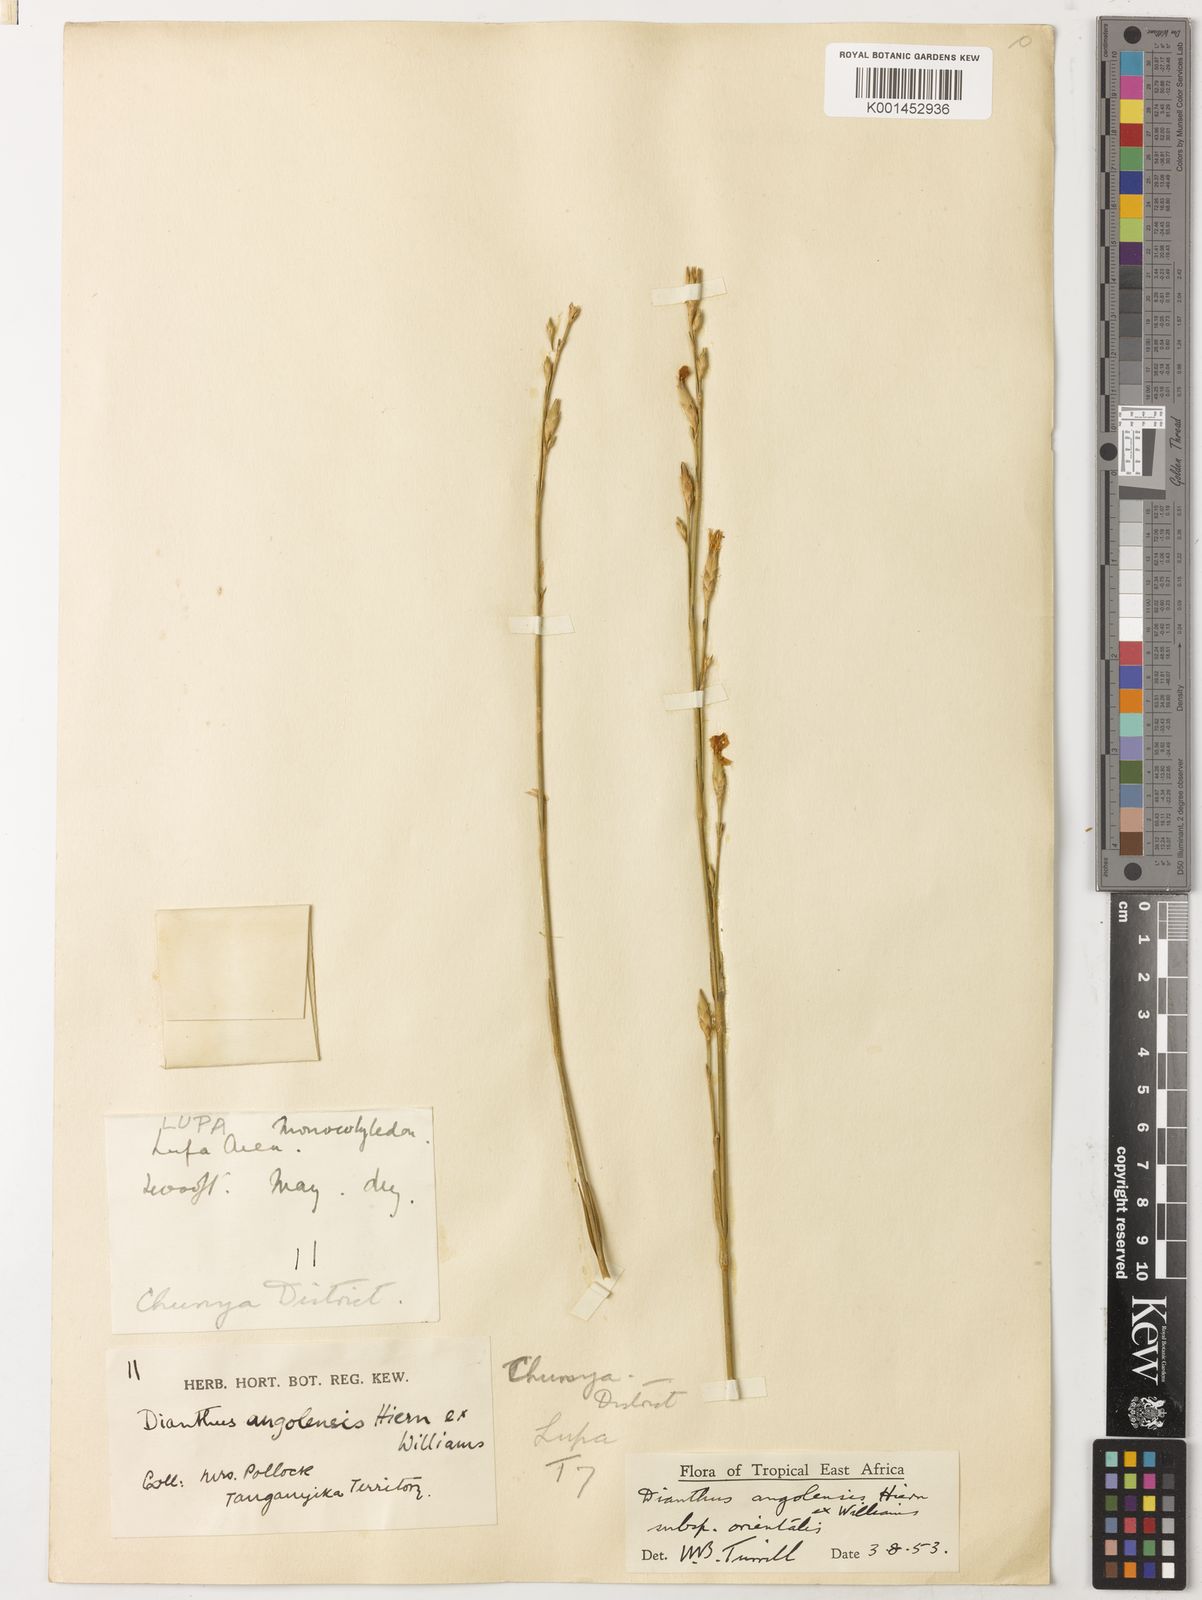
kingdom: Plantae
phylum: Tracheophyta
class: Magnoliopsida
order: Caryophyllales
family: Caryophyllaceae
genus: Dianthus
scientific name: Dianthus angolensis
